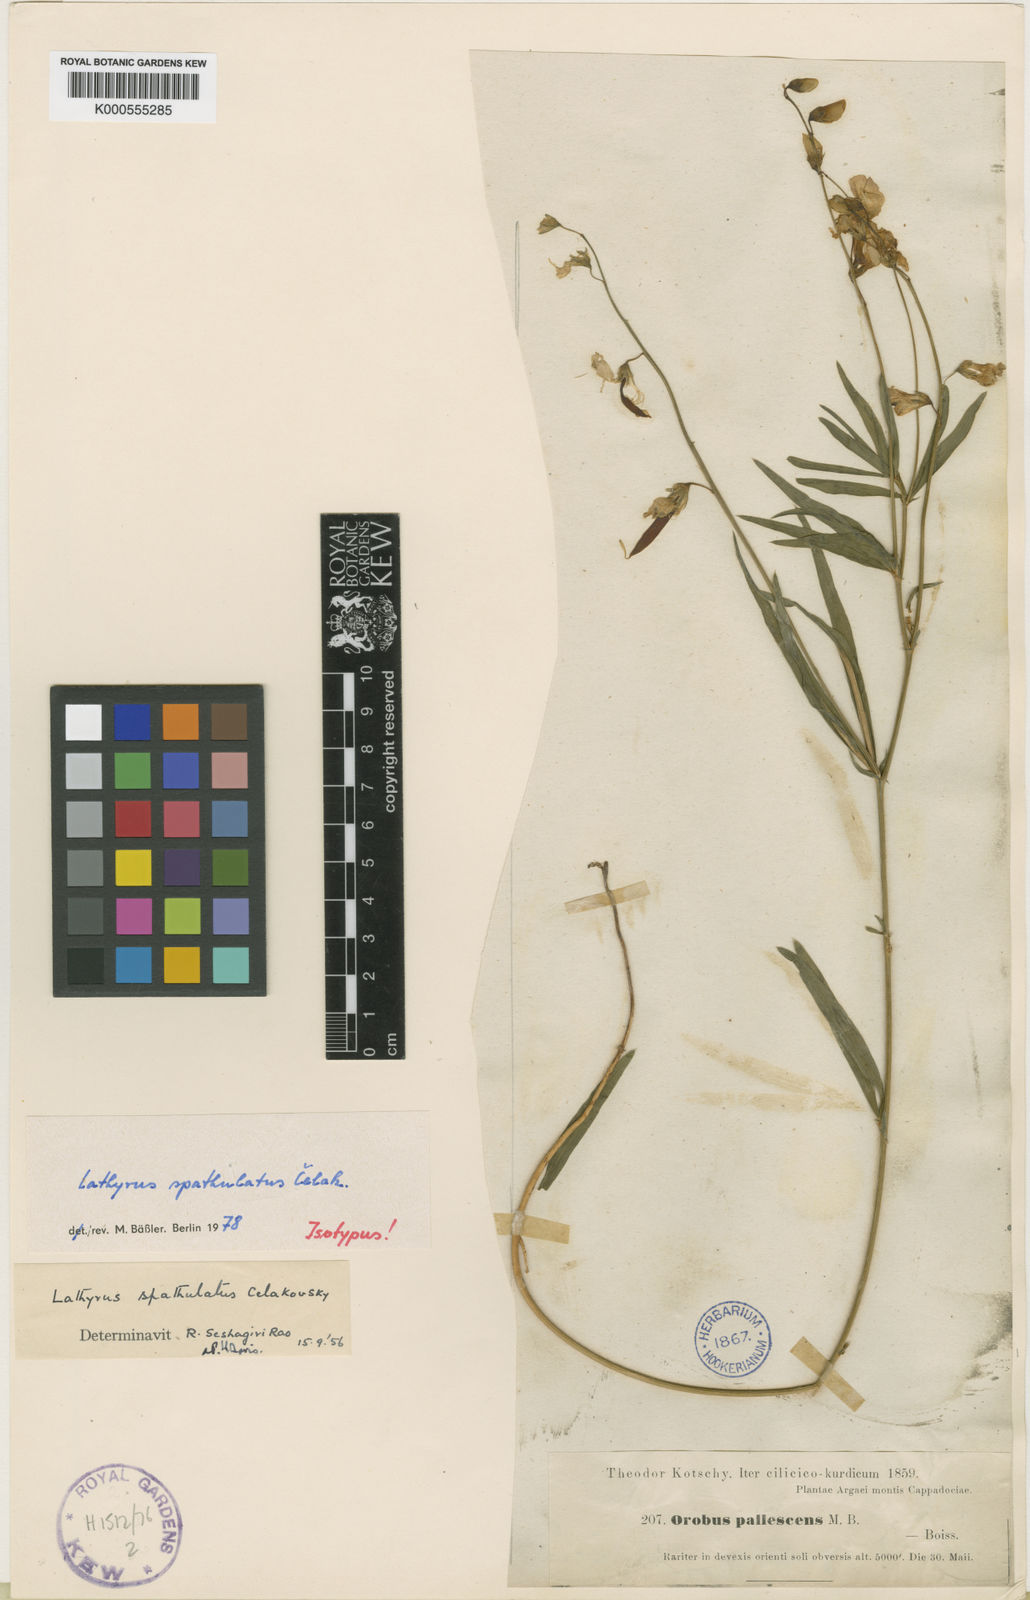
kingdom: Plantae
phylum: Tracheophyta
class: Magnoliopsida
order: Fabales
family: Fabaceae
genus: Lathyrus
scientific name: Lathyrus spathulatus
